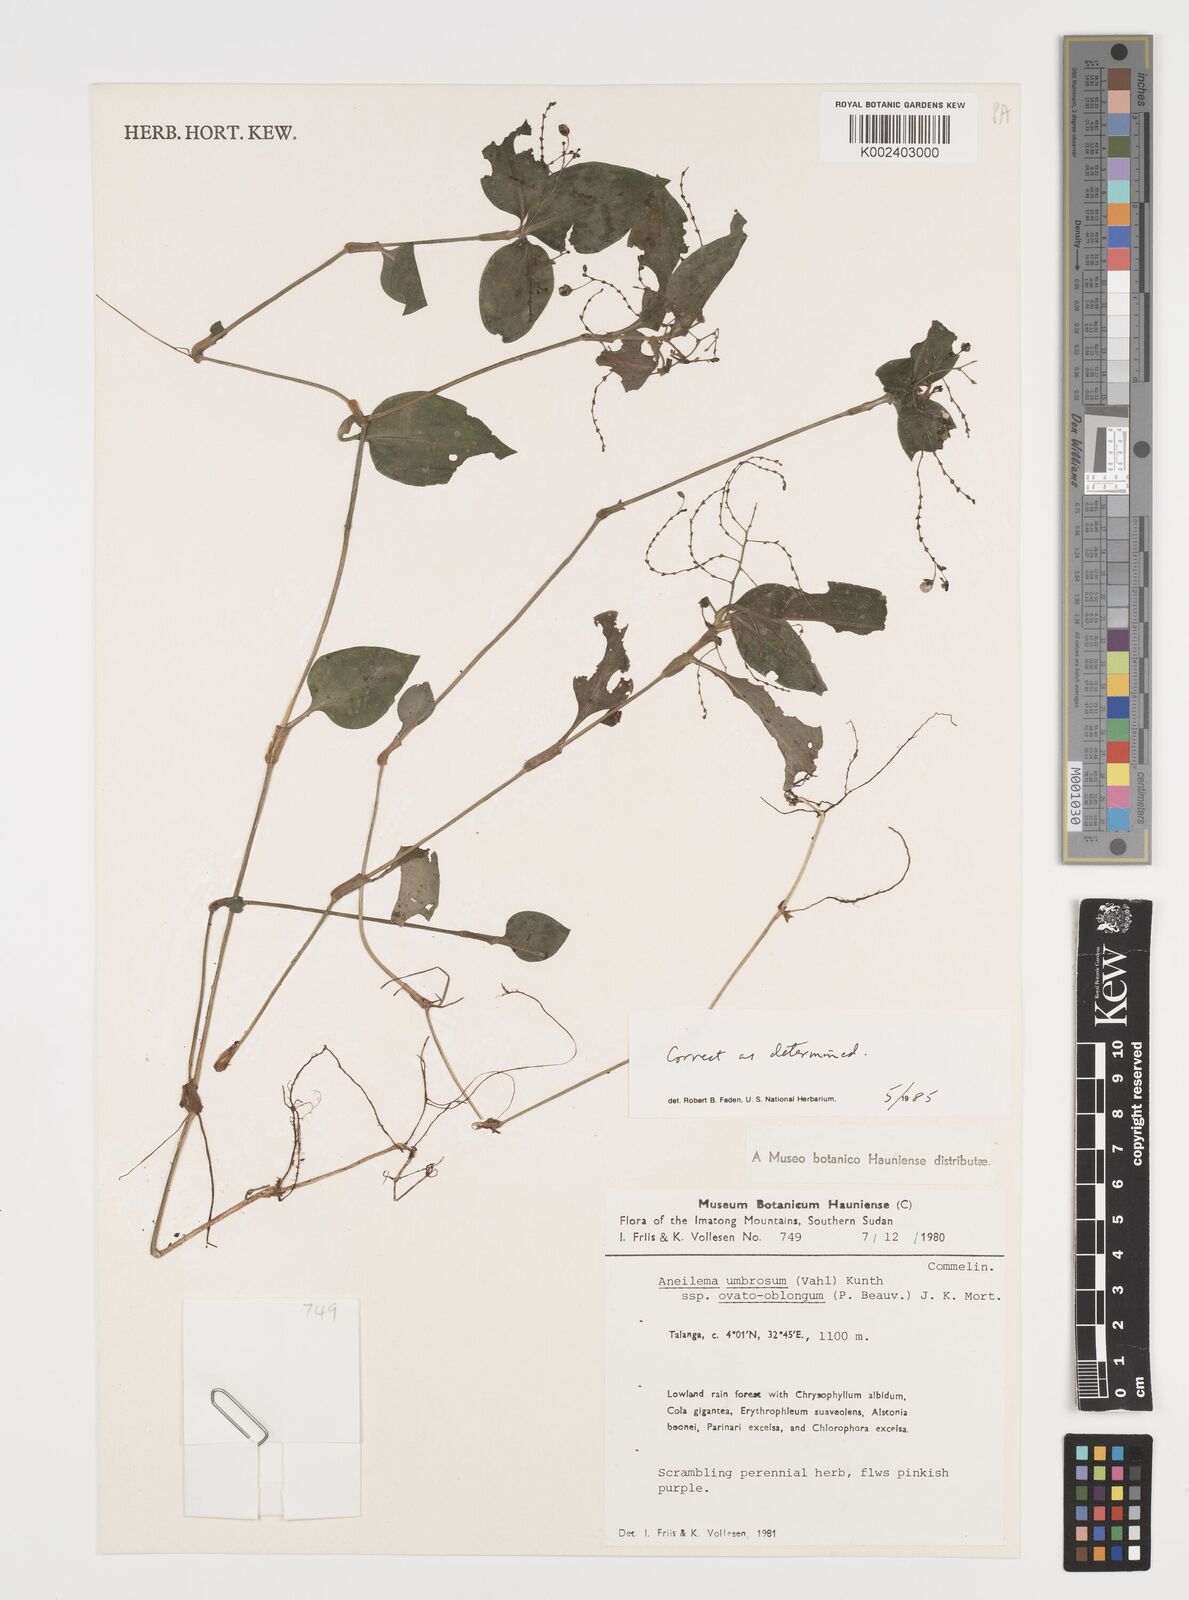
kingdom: Plantae
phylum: Tracheophyta
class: Liliopsida
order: Commelinales
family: Commelinaceae
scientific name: Commelinaceae
